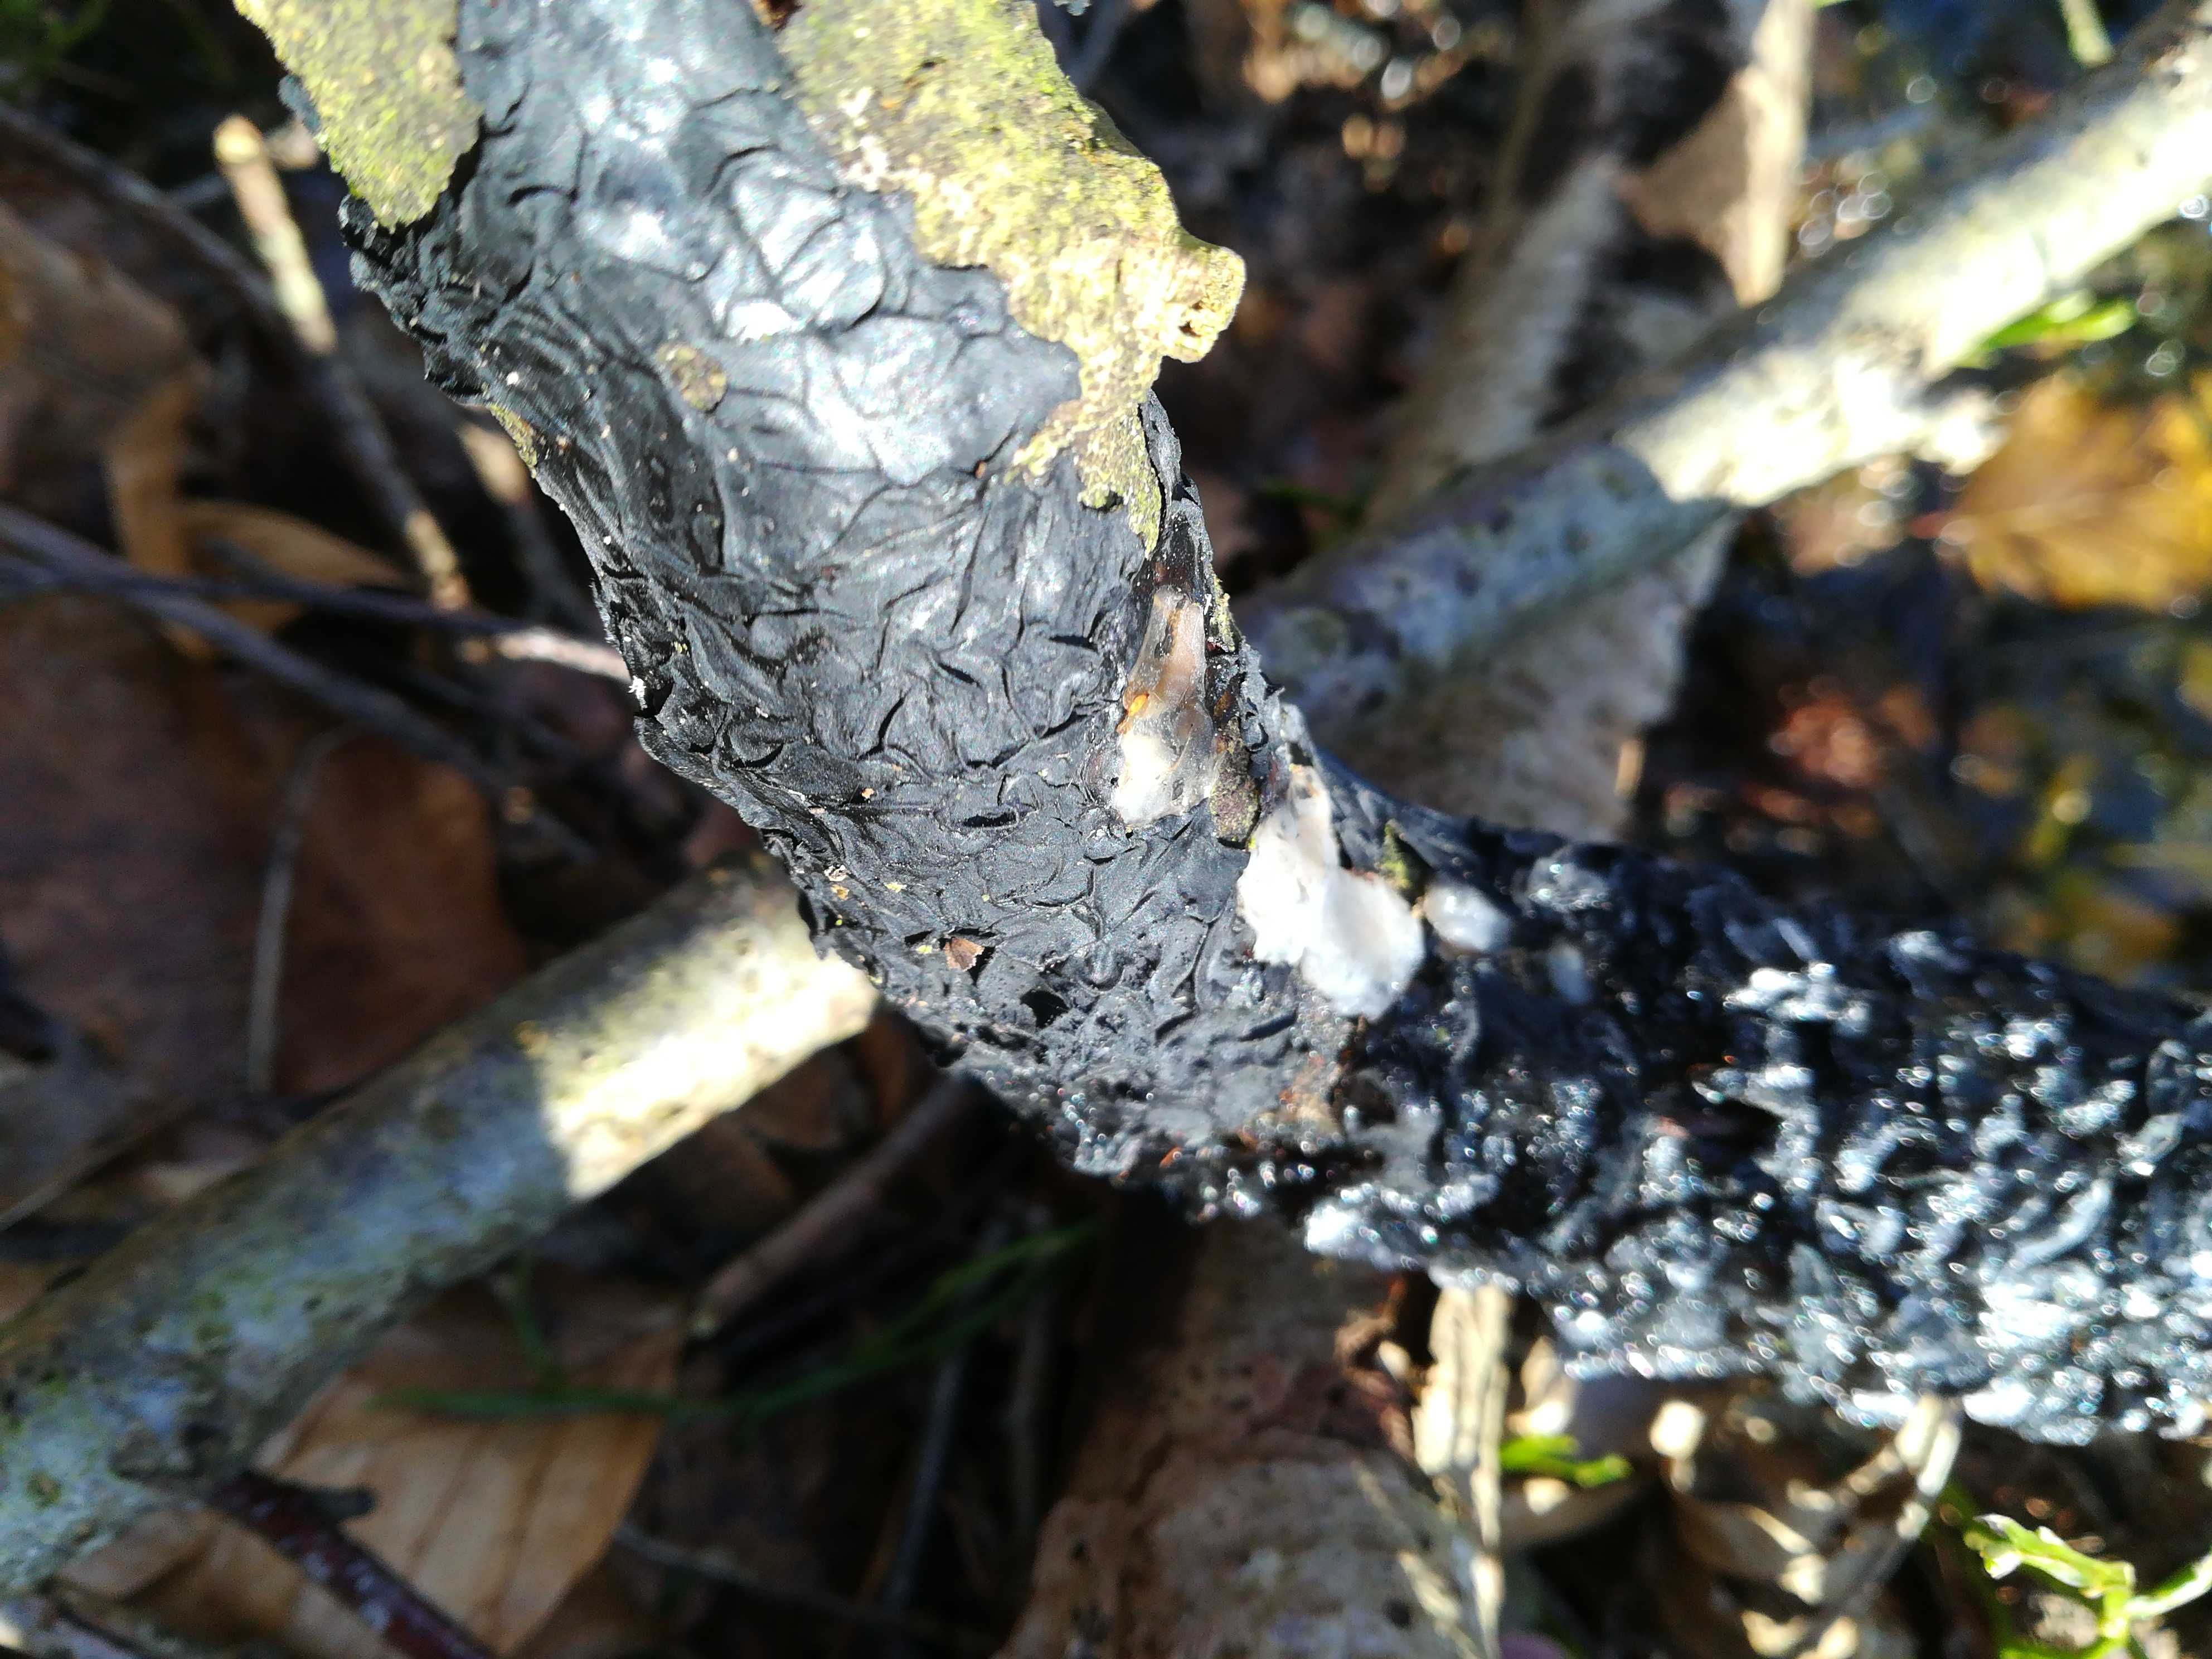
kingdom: Fungi
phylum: Basidiomycota
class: Agaricomycetes
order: Auriculariales
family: Auriculariaceae
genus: Exidia
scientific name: Exidia nigricans
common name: almindelig bævretop
